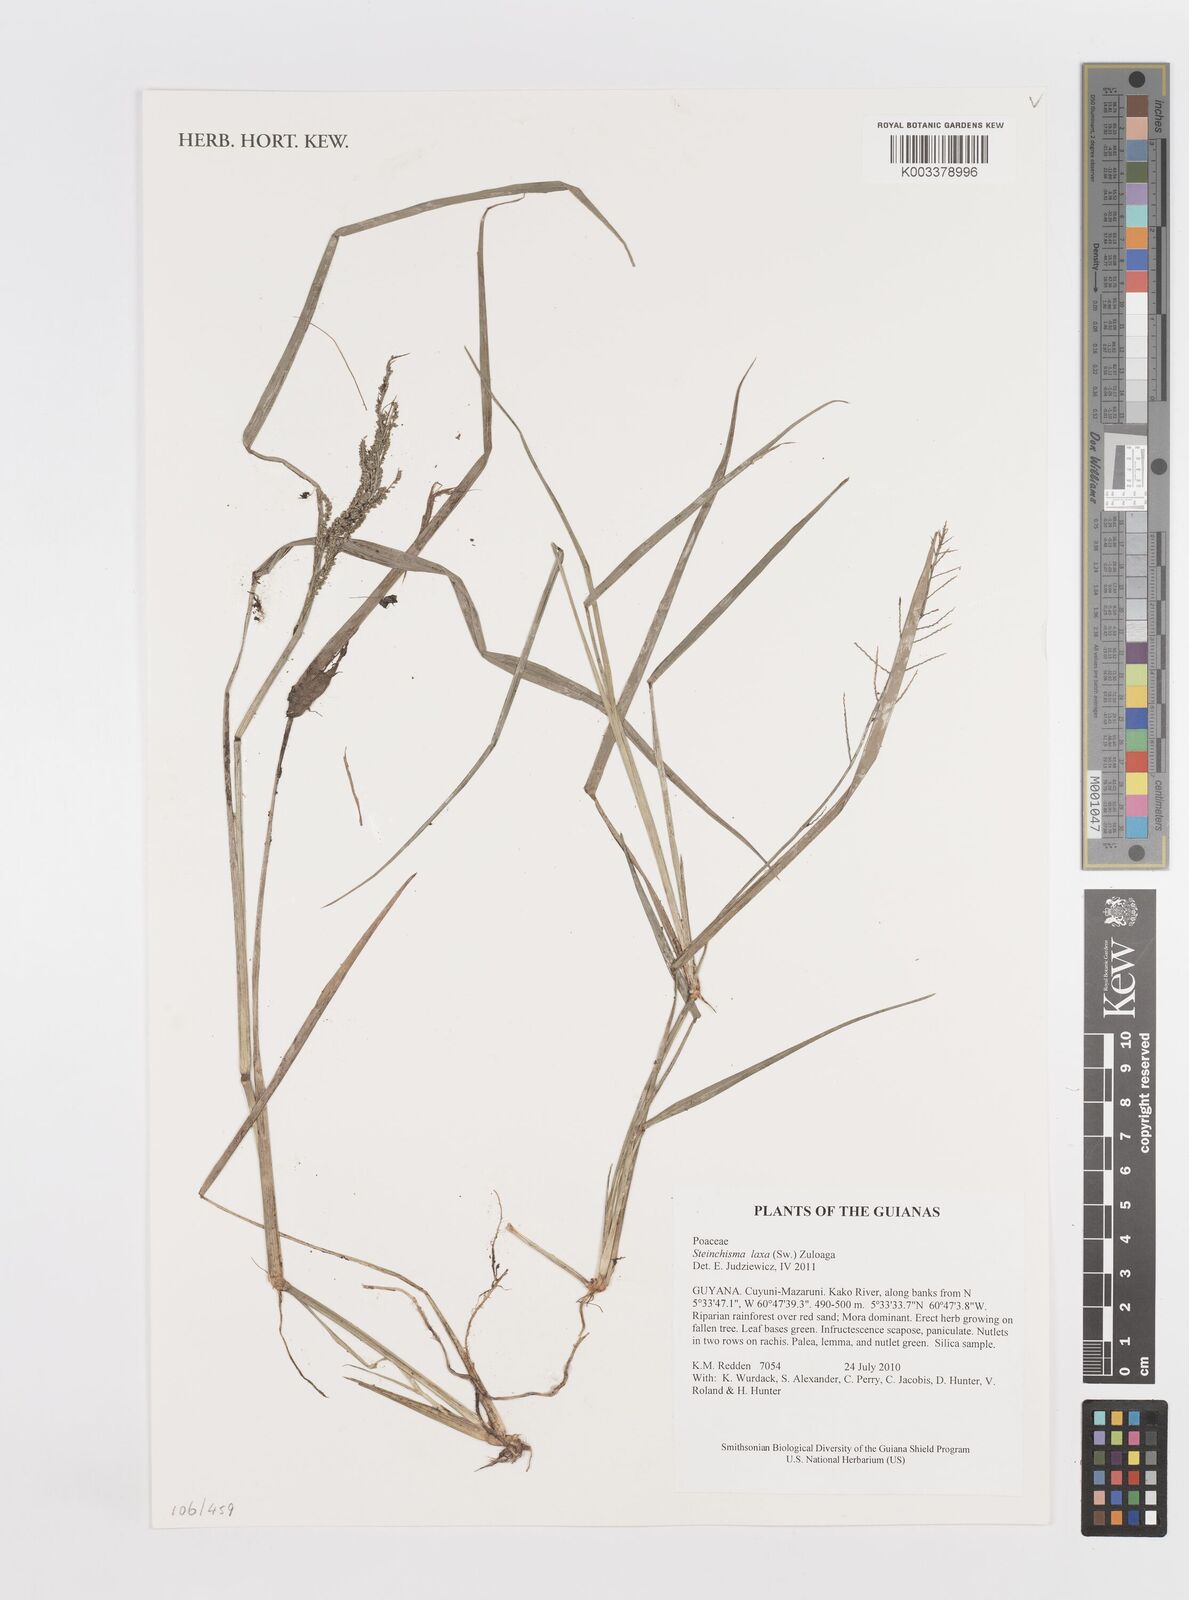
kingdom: Plantae
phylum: Tracheophyta
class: Liliopsida
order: Poales
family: Poaceae
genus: Steinchisma
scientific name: Steinchisma laxum
